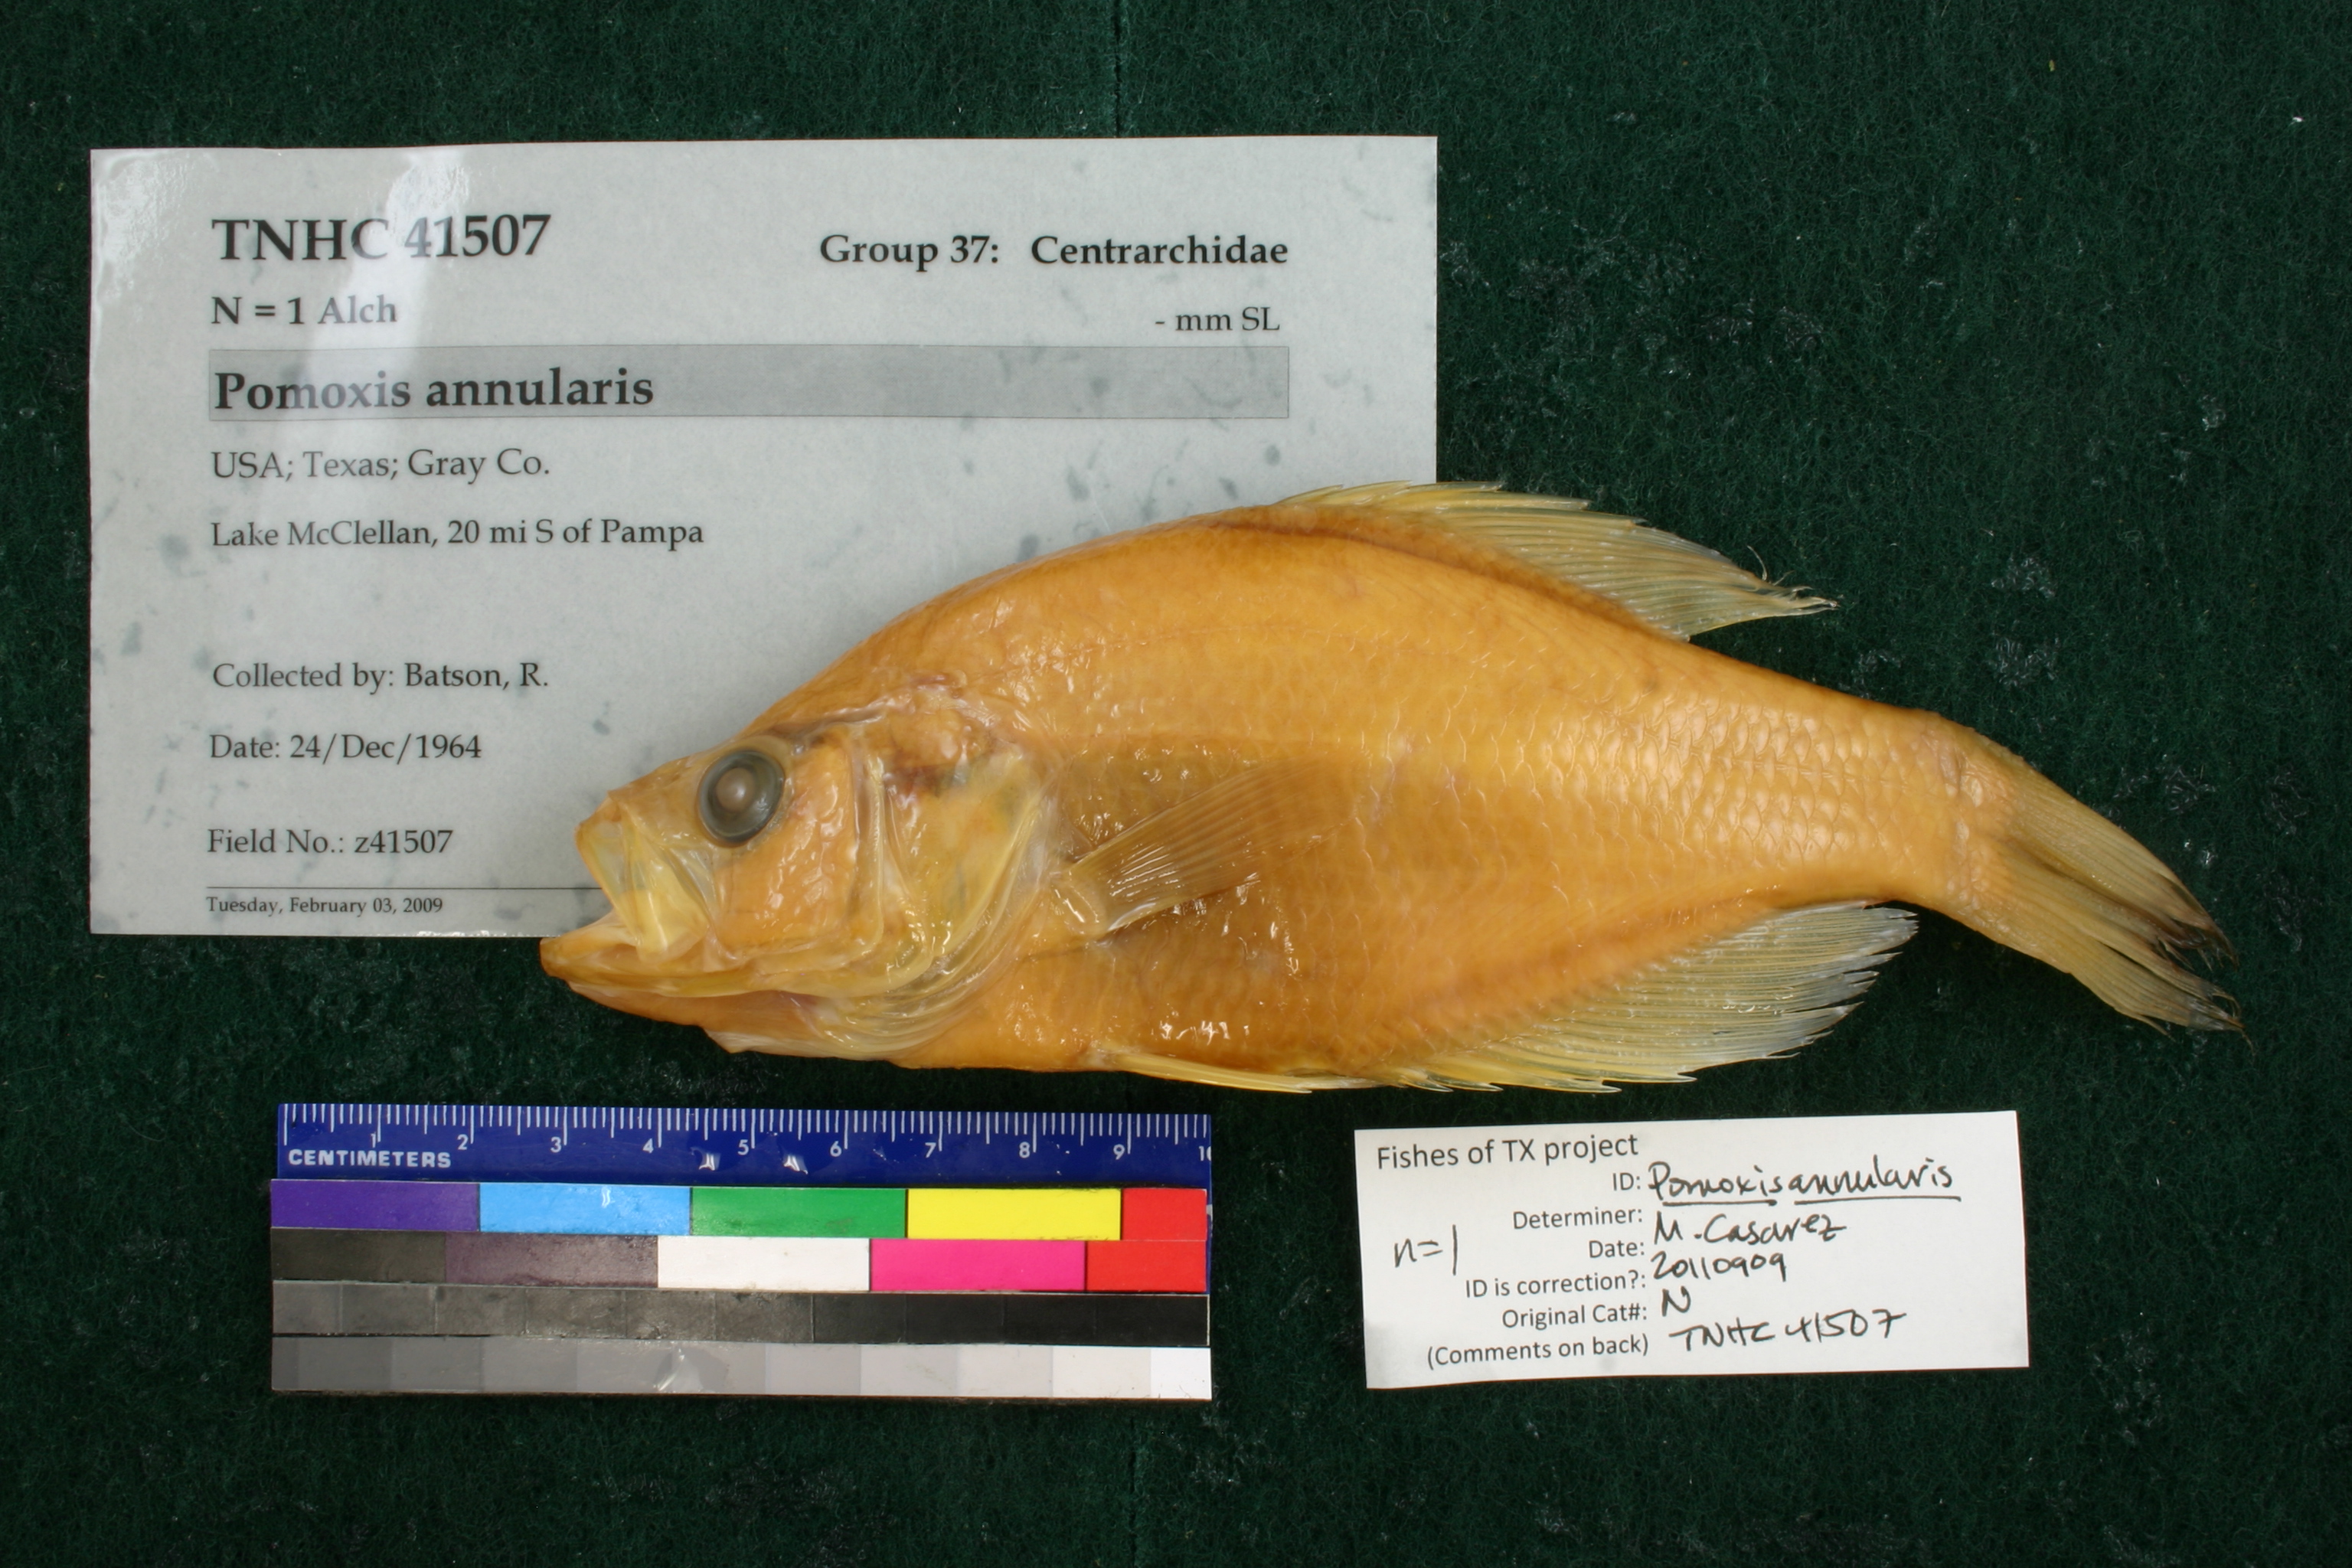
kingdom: Animalia
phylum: Chordata
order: Perciformes
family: Centrarchidae
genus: Pomoxis
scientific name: Pomoxis annularis
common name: White crappie
